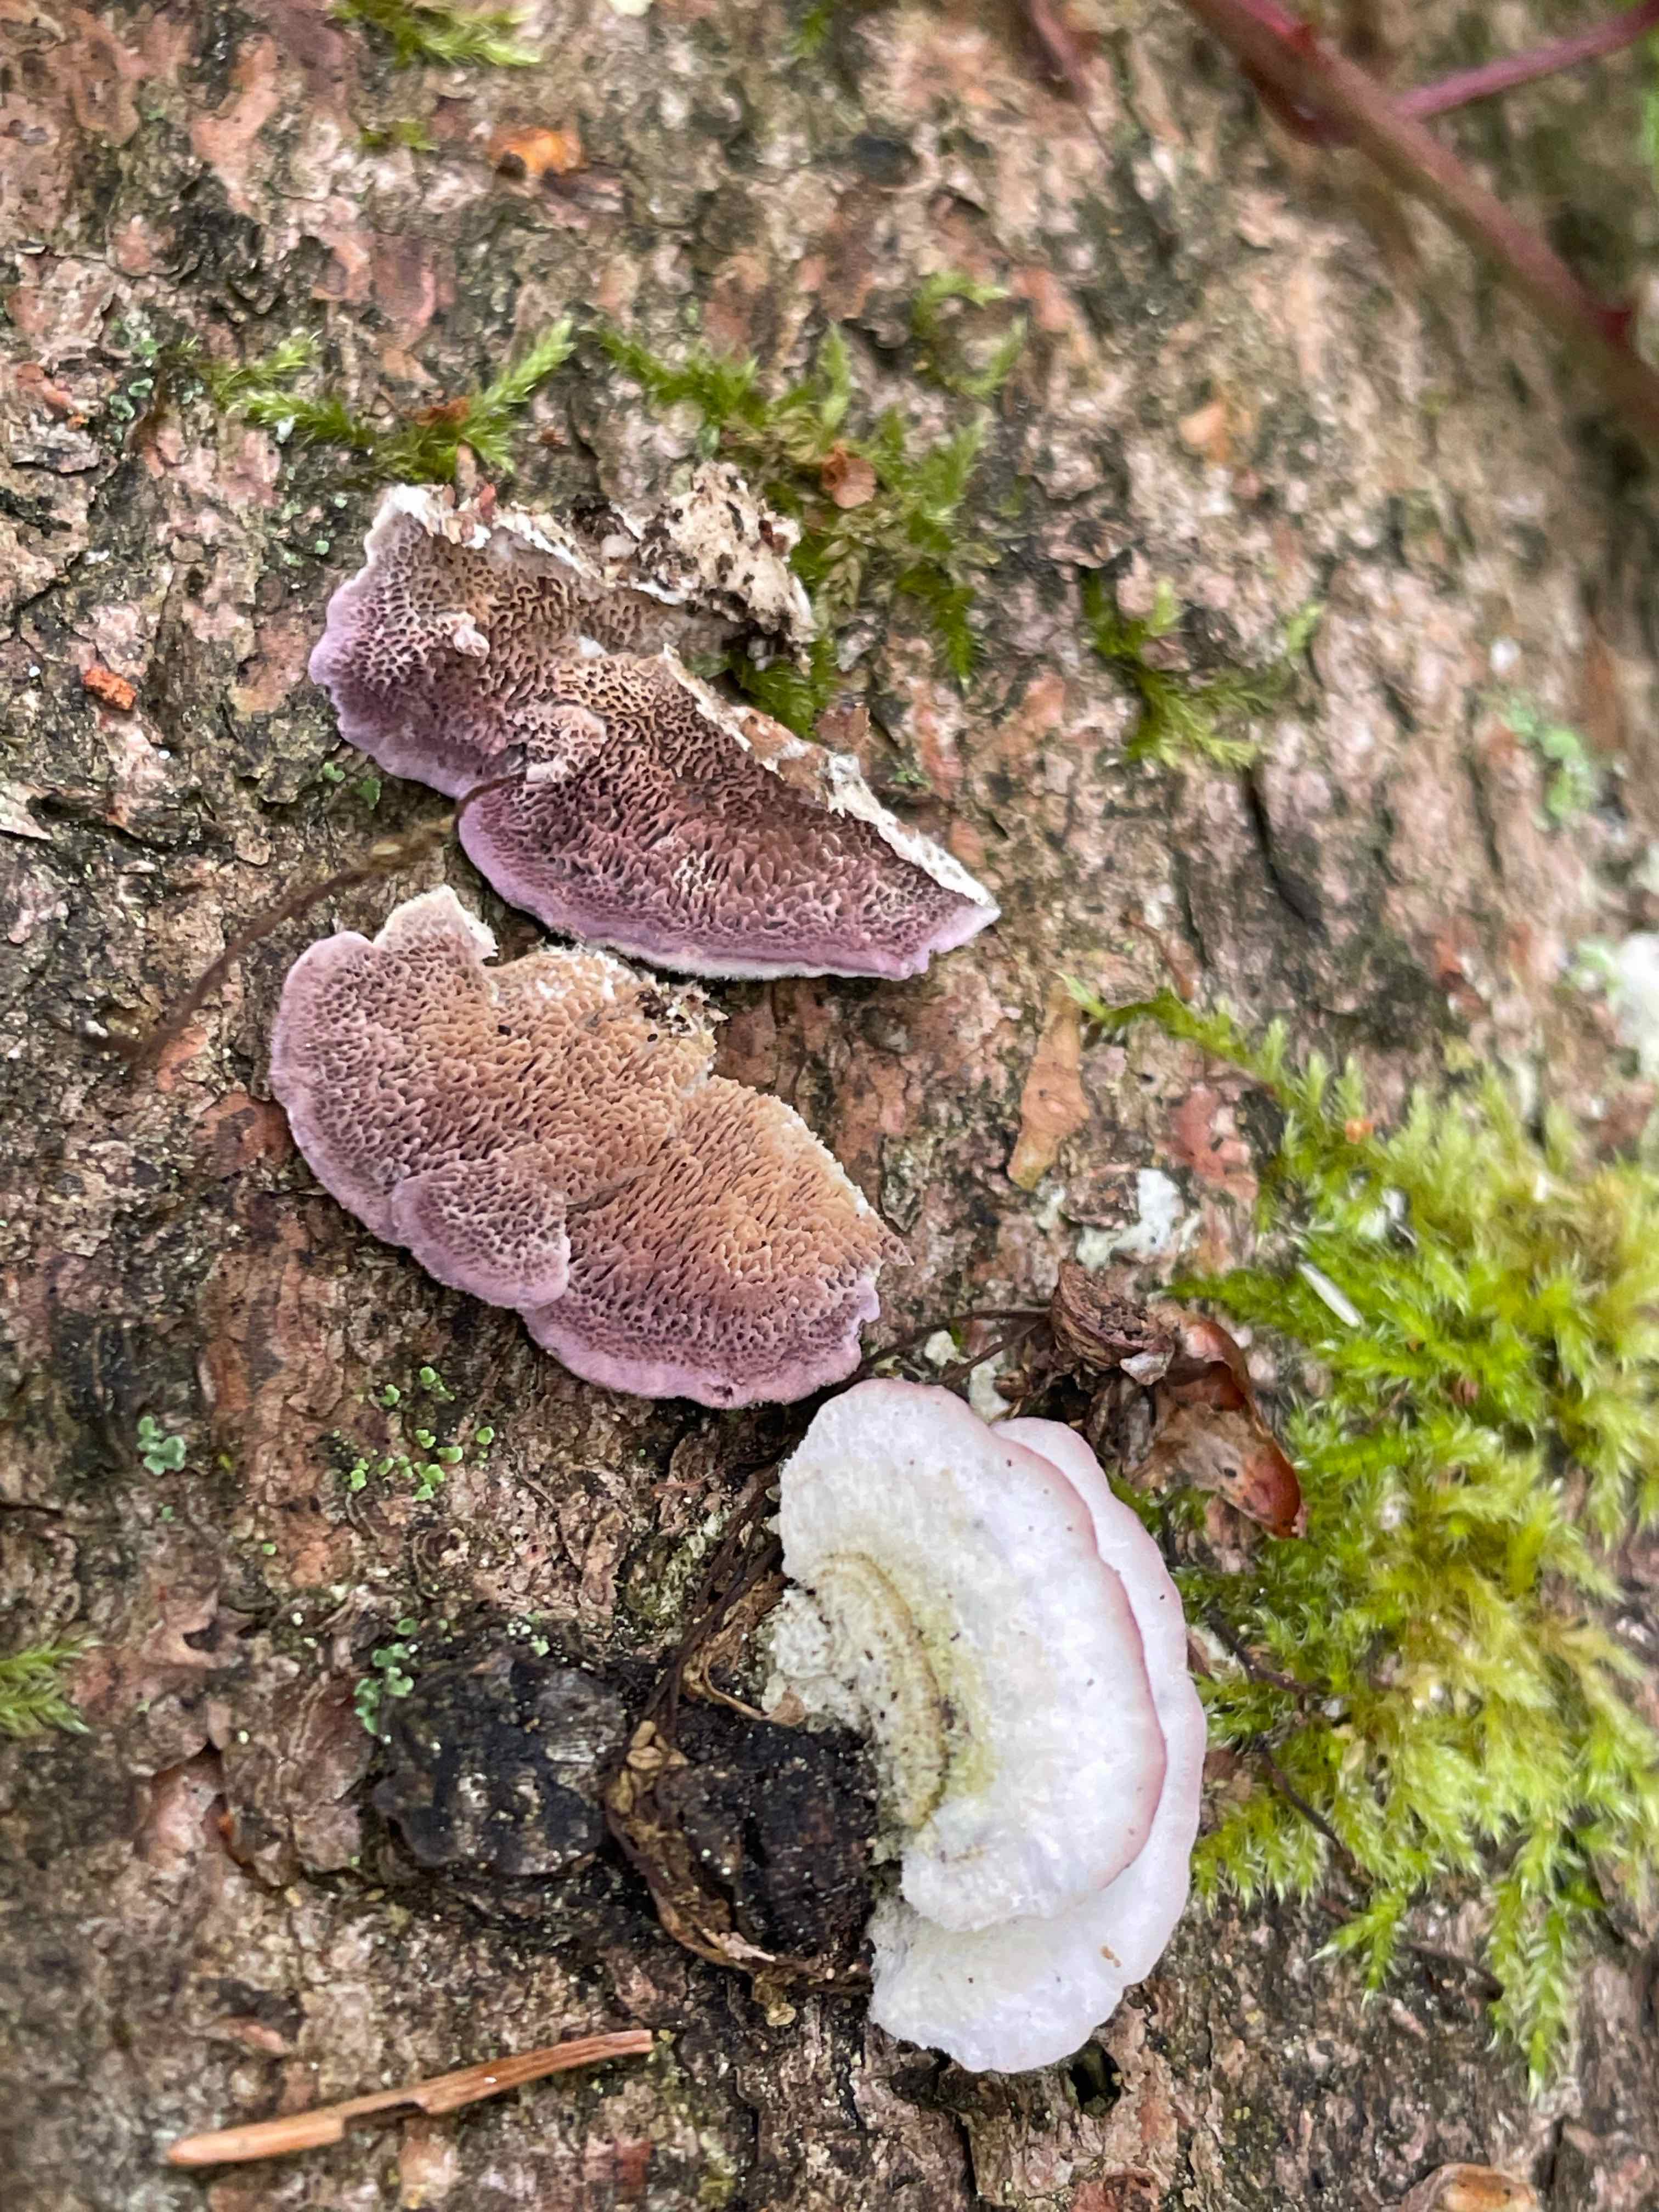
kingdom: Fungi
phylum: Basidiomycota
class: Agaricomycetes
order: Hymenochaetales
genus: Trichaptum
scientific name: Trichaptum abietinum
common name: almindelig violporesvamp
